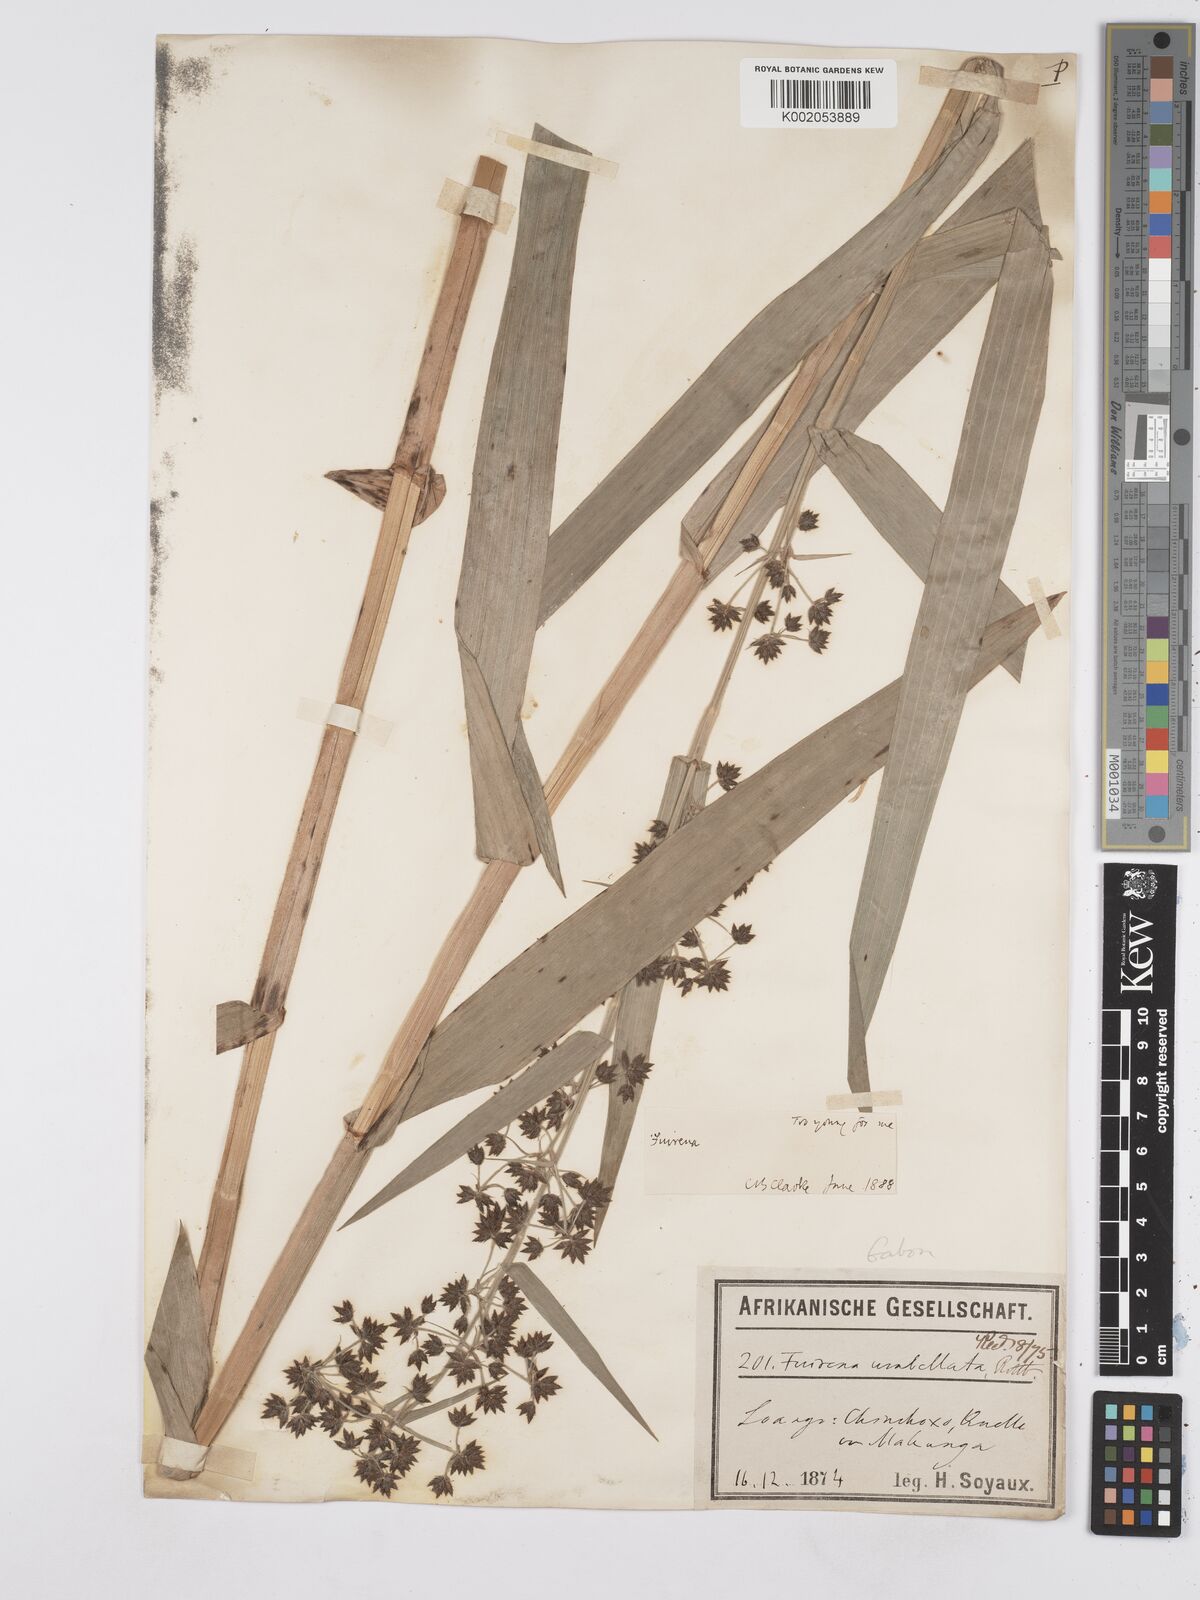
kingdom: Plantae
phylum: Tracheophyta
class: Liliopsida
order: Poales
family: Cyperaceae
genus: Fuirena
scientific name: Fuirena umbellata
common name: Yefen
